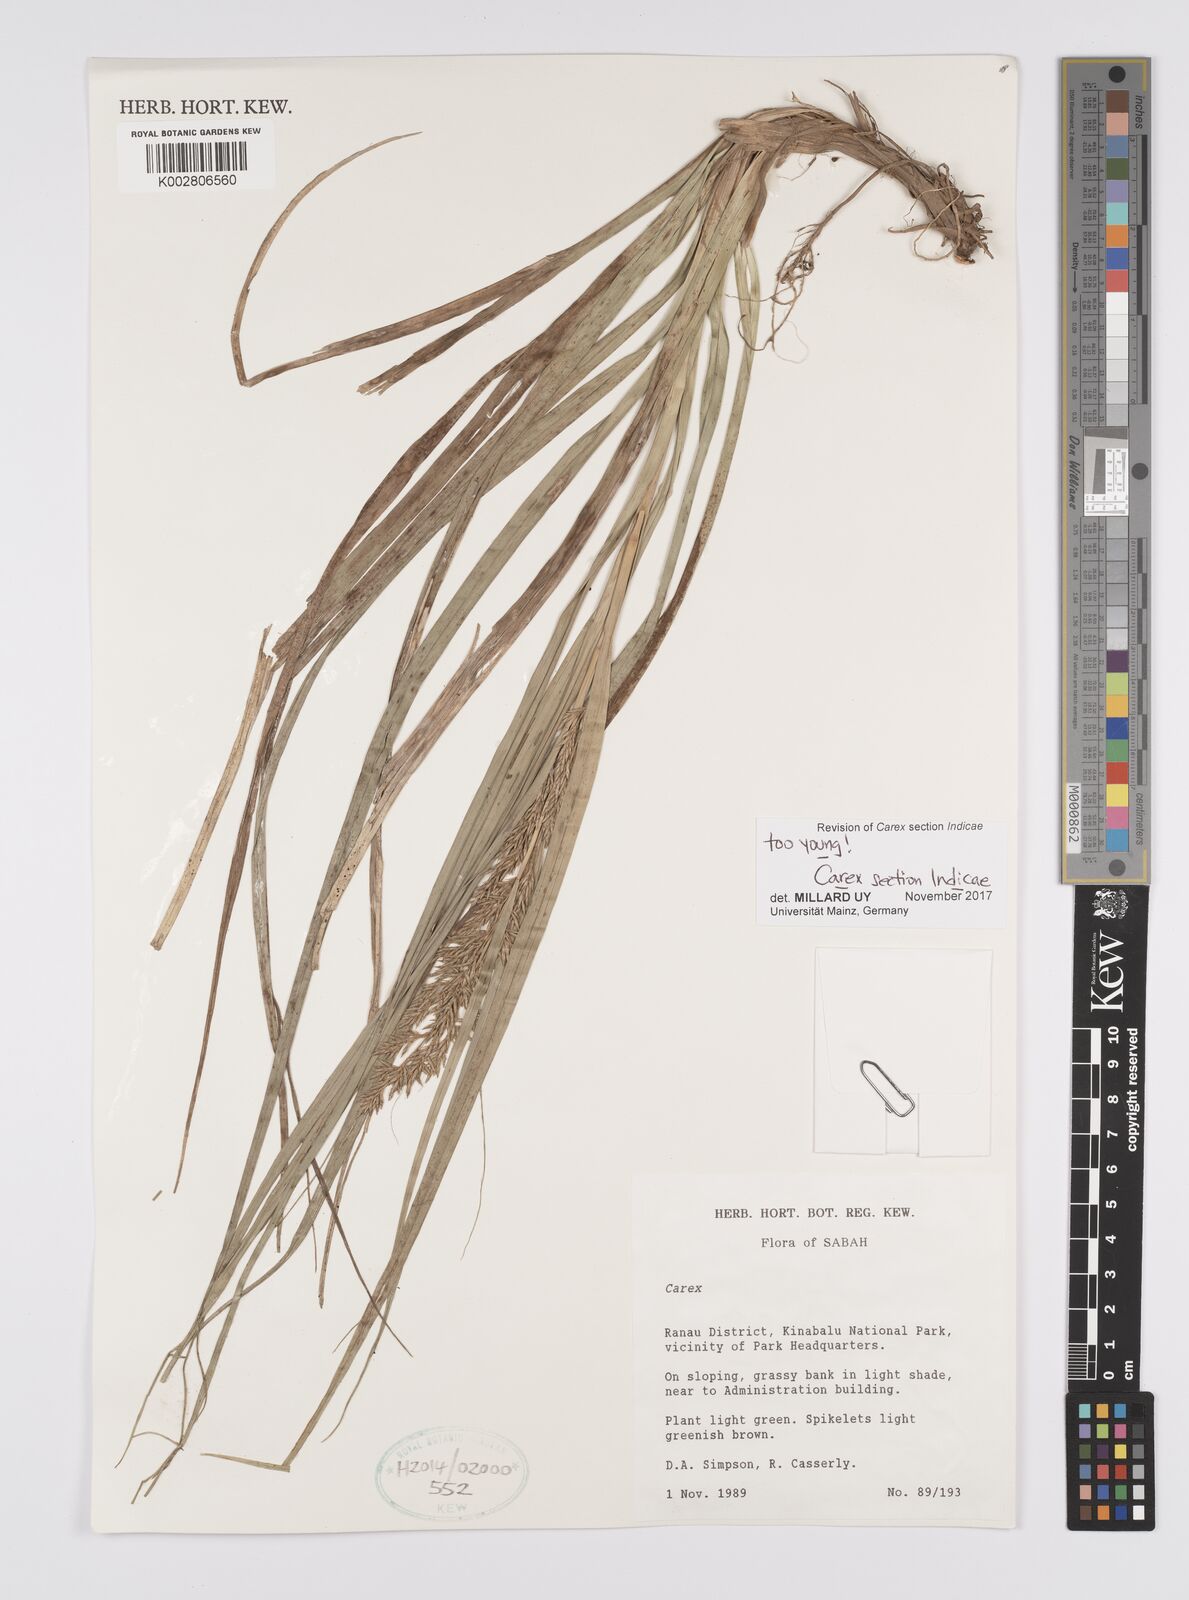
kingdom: Plantae
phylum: Tracheophyta
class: Liliopsida
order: Poales
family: Cyperaceae
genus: Carex
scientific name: Carex
